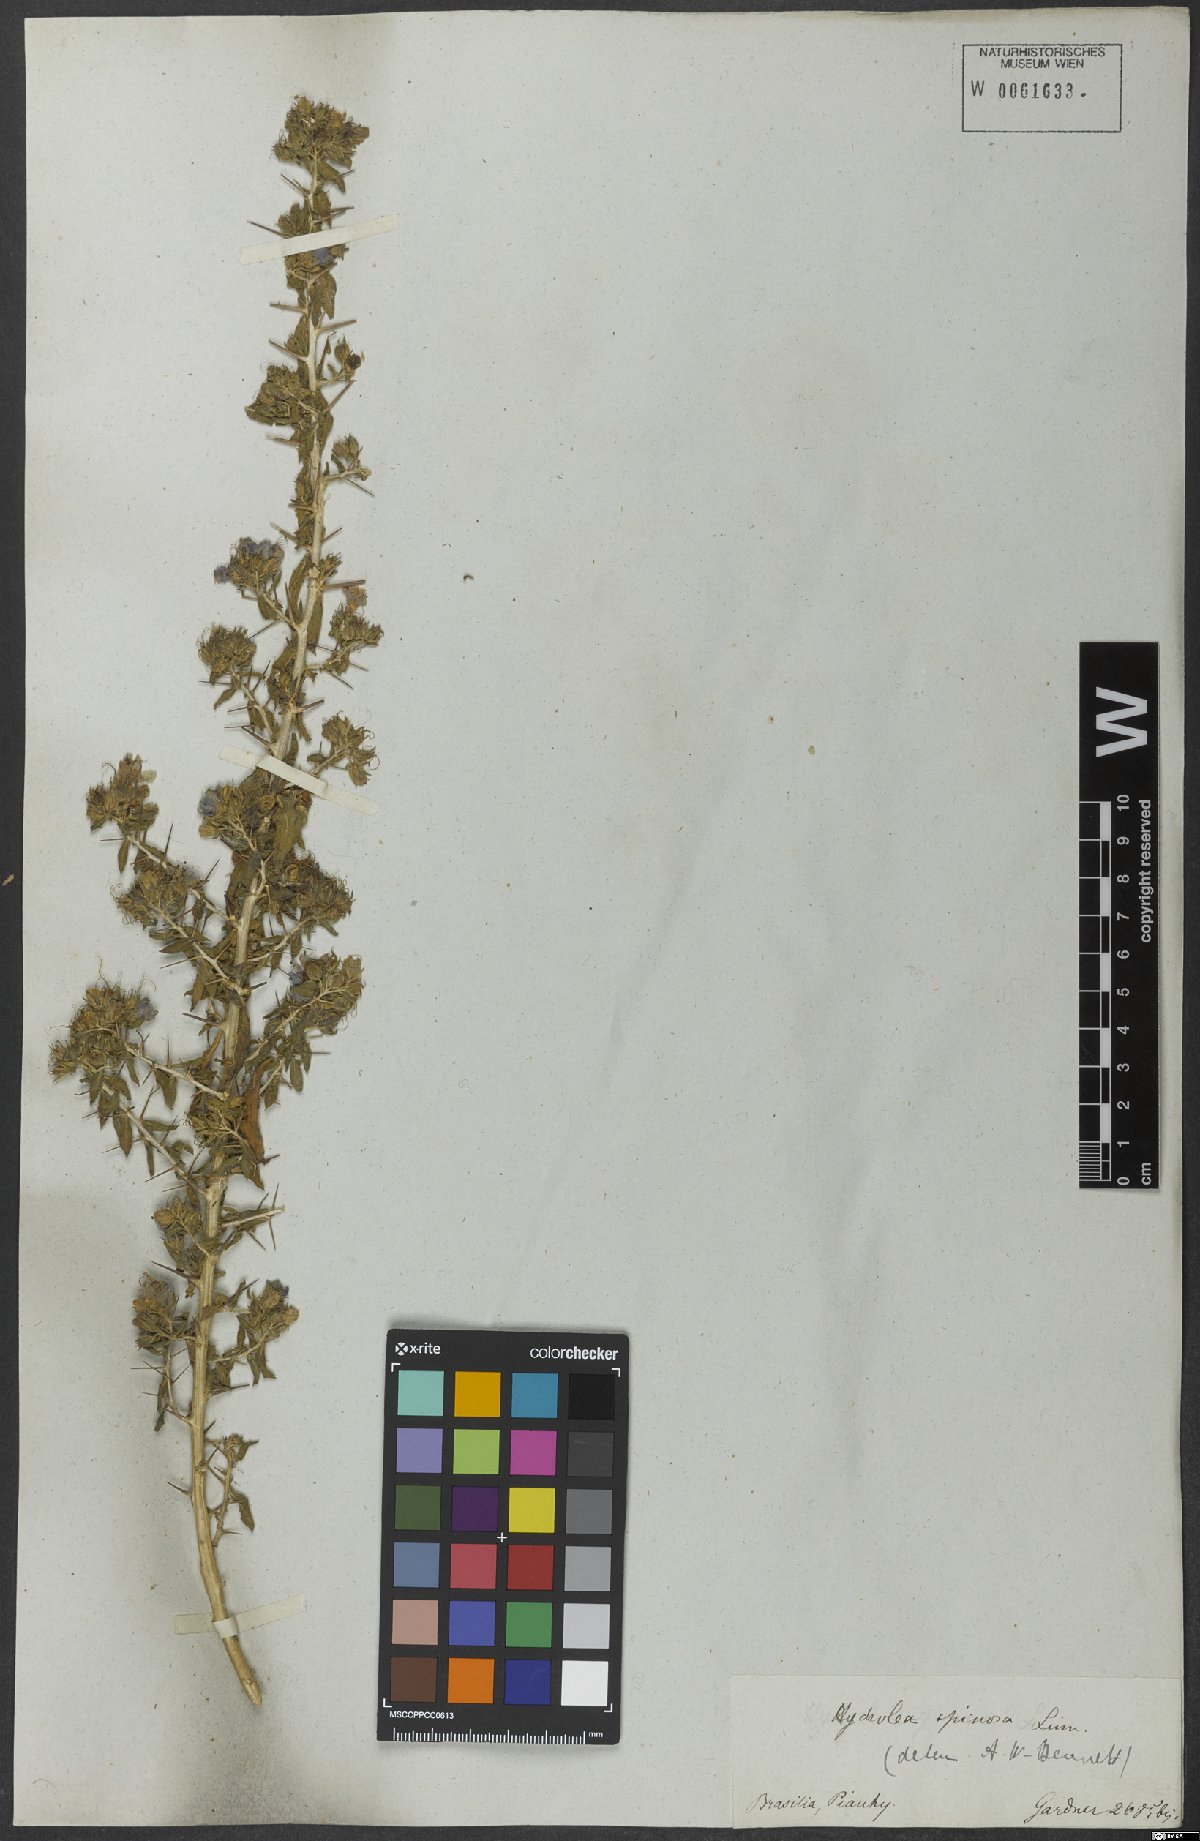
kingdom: Plantae
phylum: Tracheophyta
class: Magnoliopsida
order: Solanales
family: Hydroleaceae
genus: Hydrolea
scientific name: Hydrolea spinosa
